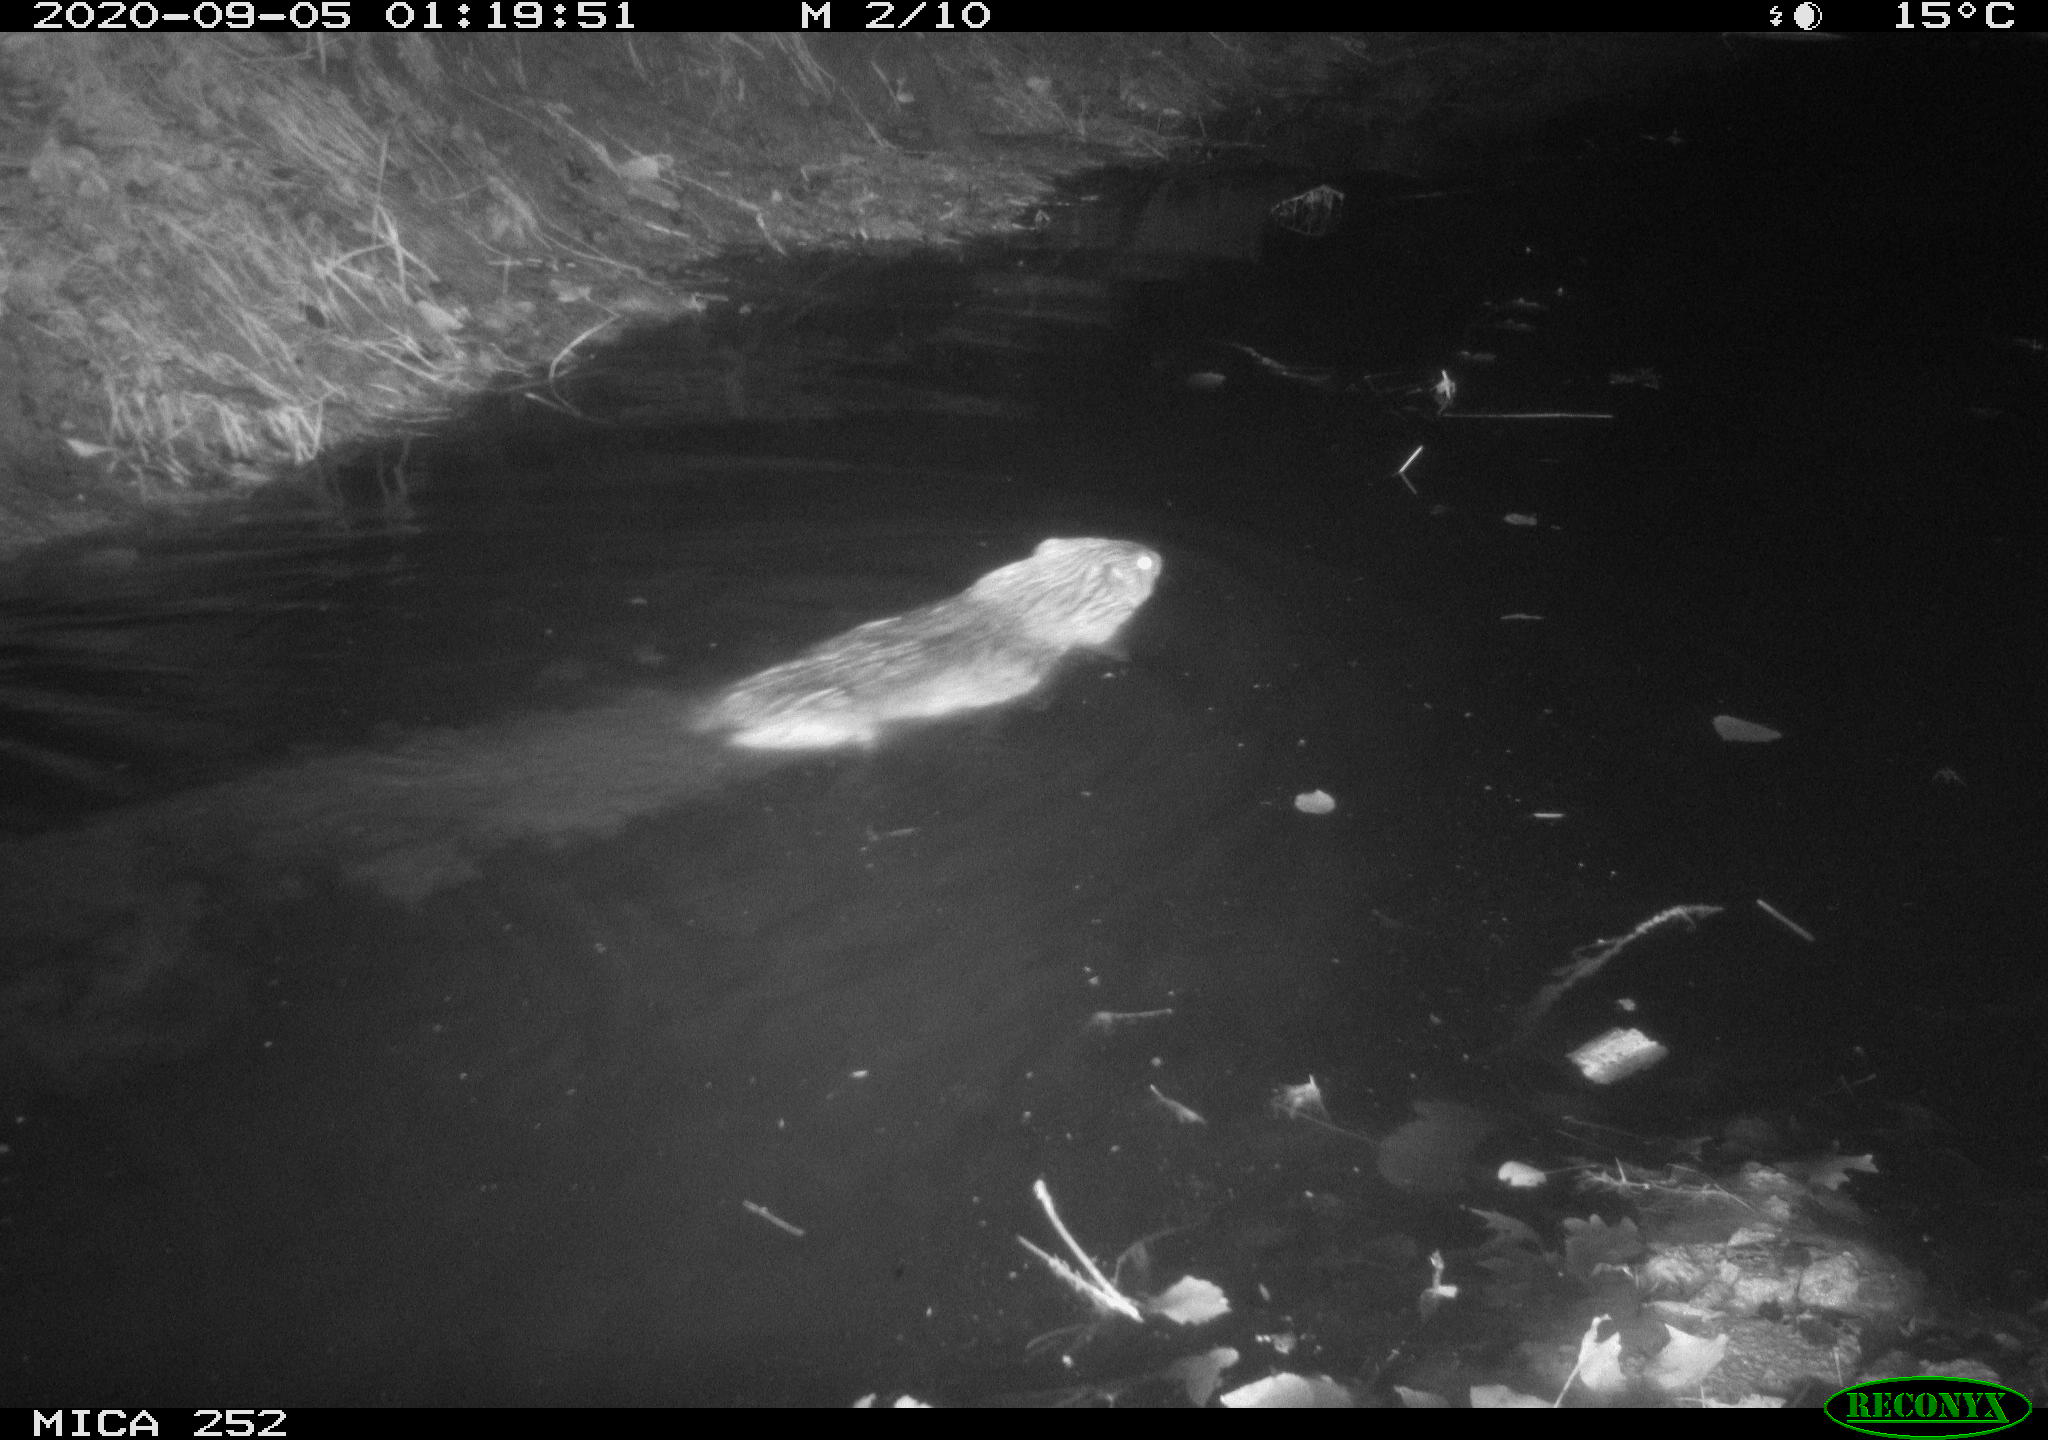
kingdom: Animalia
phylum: Chordata
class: Mammalia
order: Rodentia
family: Castoridae
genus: Castor
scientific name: Castor fiber
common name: Eurasian beaver
